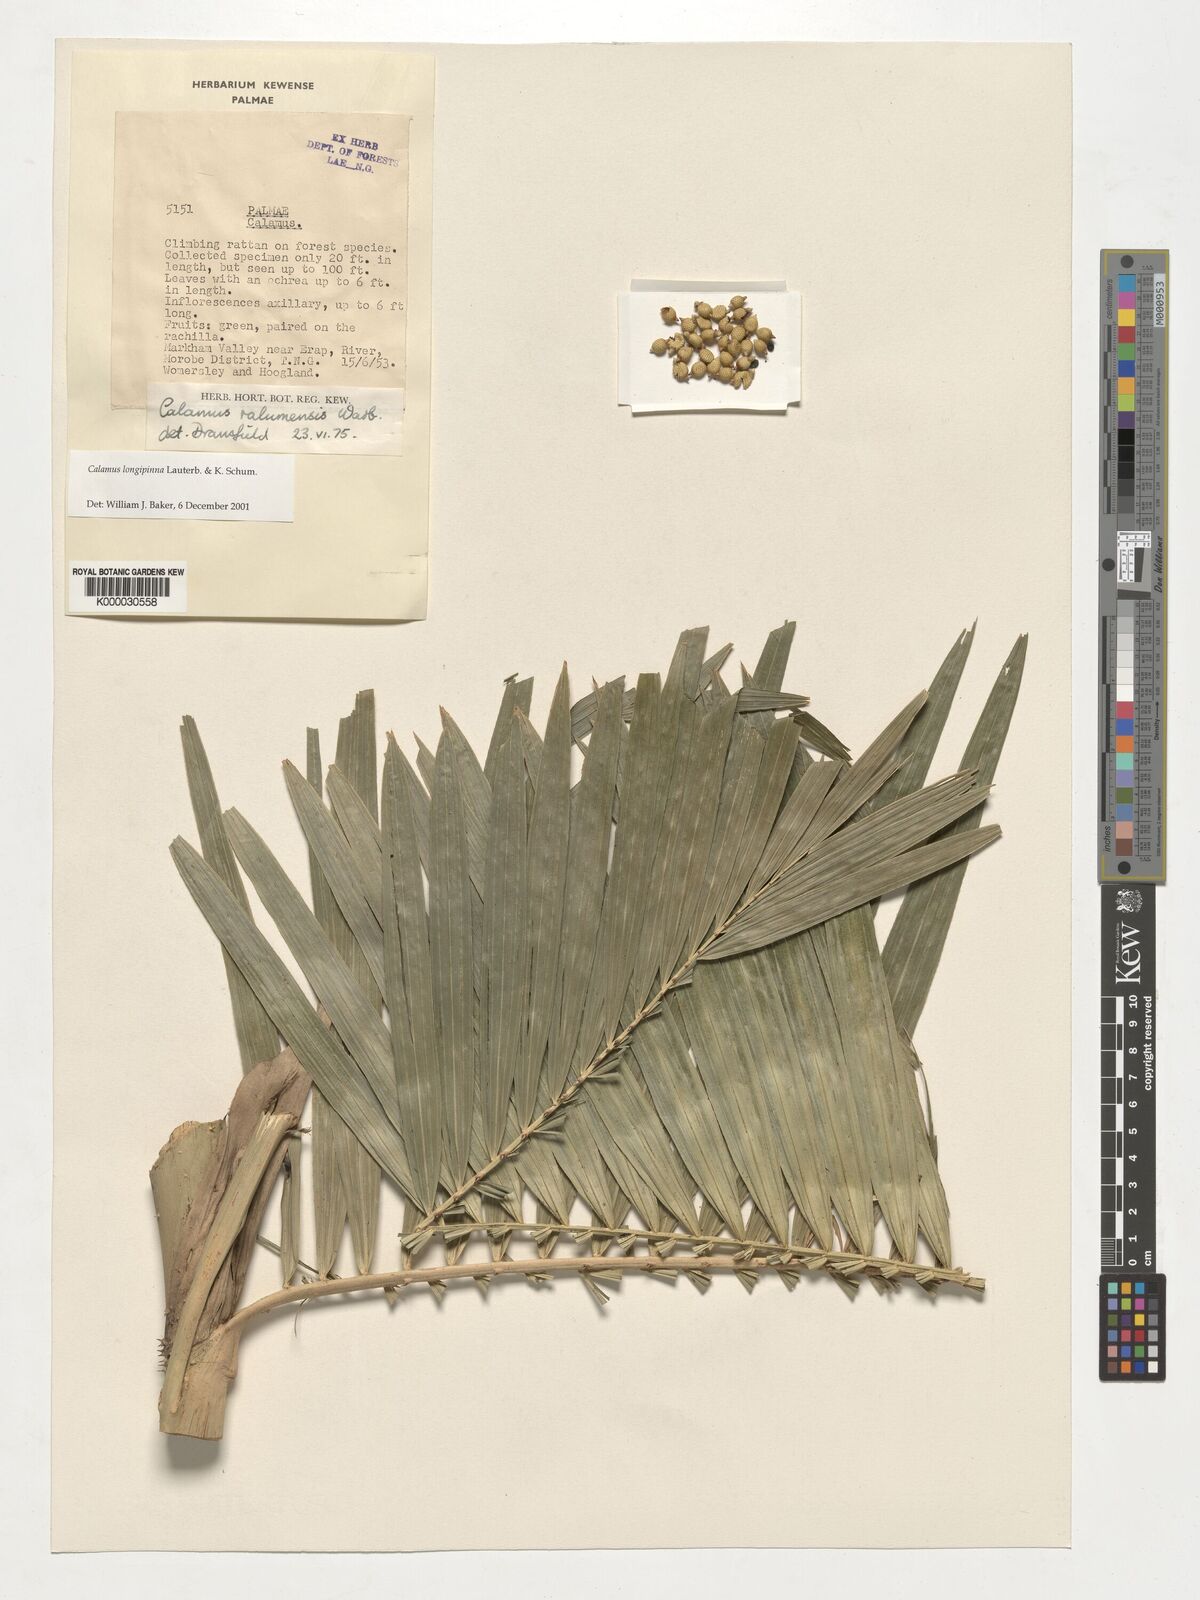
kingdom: Plantae
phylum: Tracheophyta
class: Liliopsida
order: Arecales
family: Arecaceae
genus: Calamus
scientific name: Calamus longipinna
